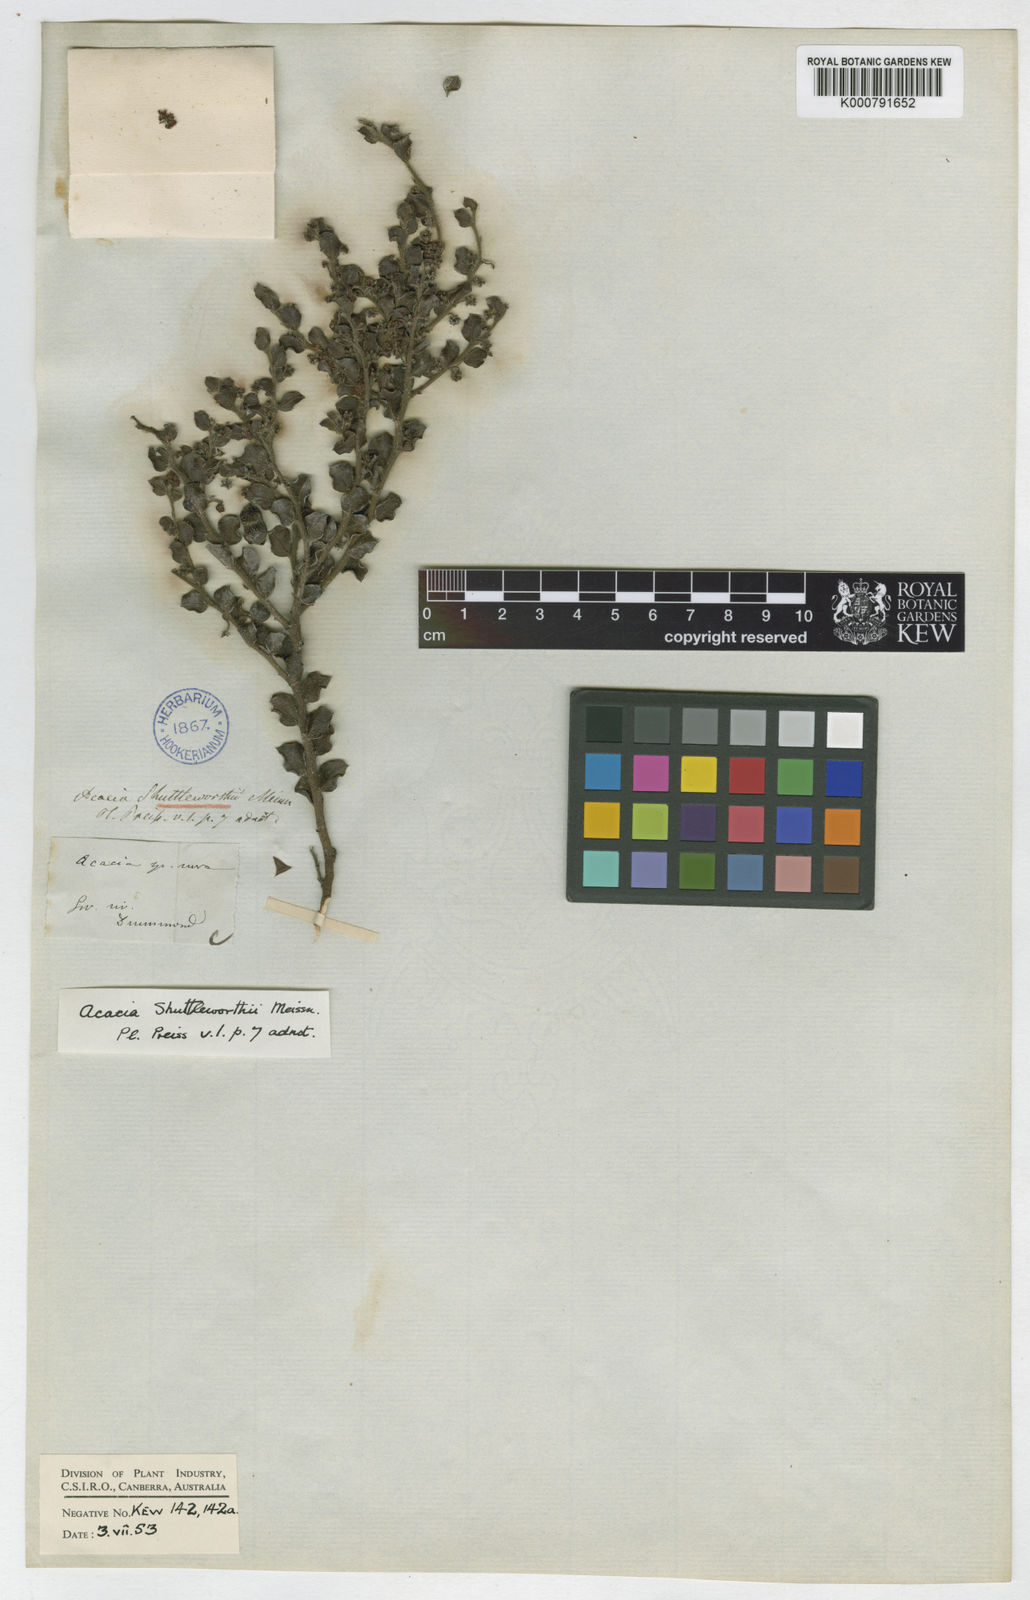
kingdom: Plantae
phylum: Tracheophyta
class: Magnoliopsida
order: Fabales
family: Fabaceae
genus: Acacia
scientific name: Acacia shuttleworthii
